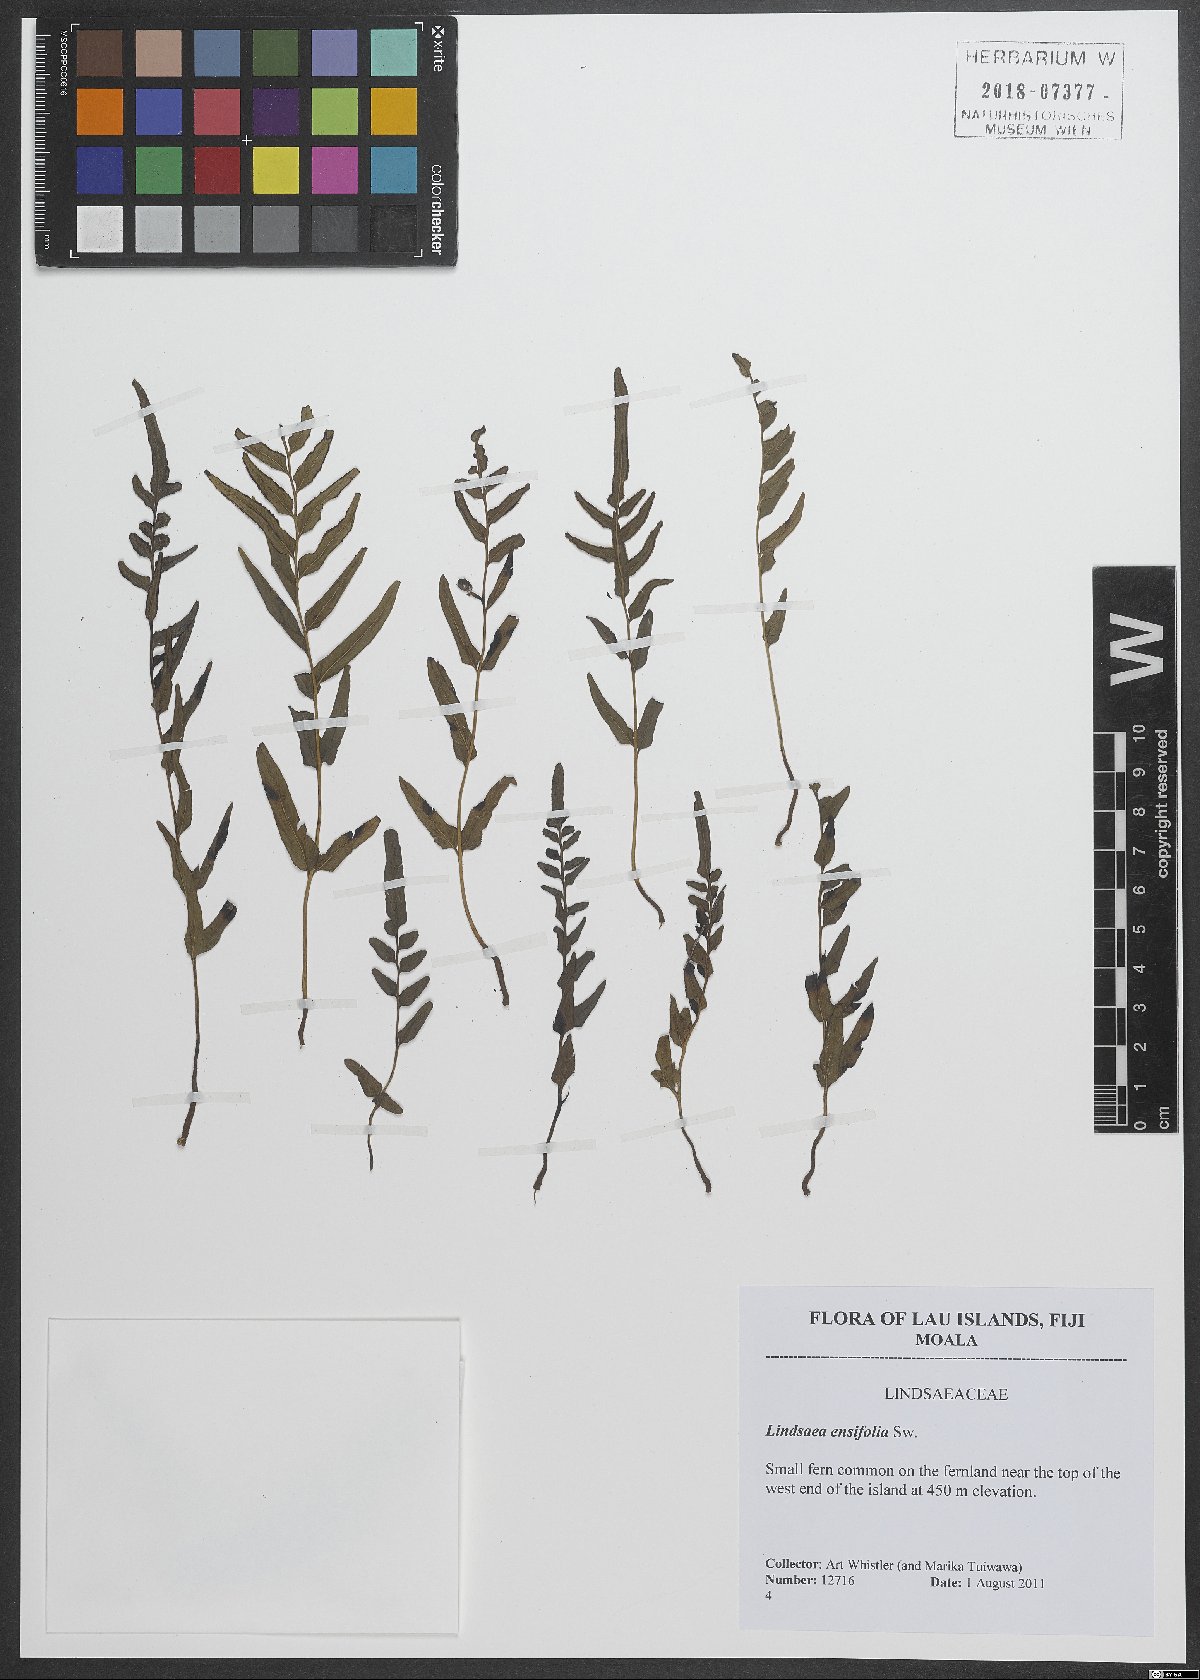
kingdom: Plantae
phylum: Tracheophyta
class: Polypodiopsida
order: Polypodiales
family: Lindsaeaceae
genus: Lindsaea
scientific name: Lindsaea ensifolia
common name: Graceful necklace fern
